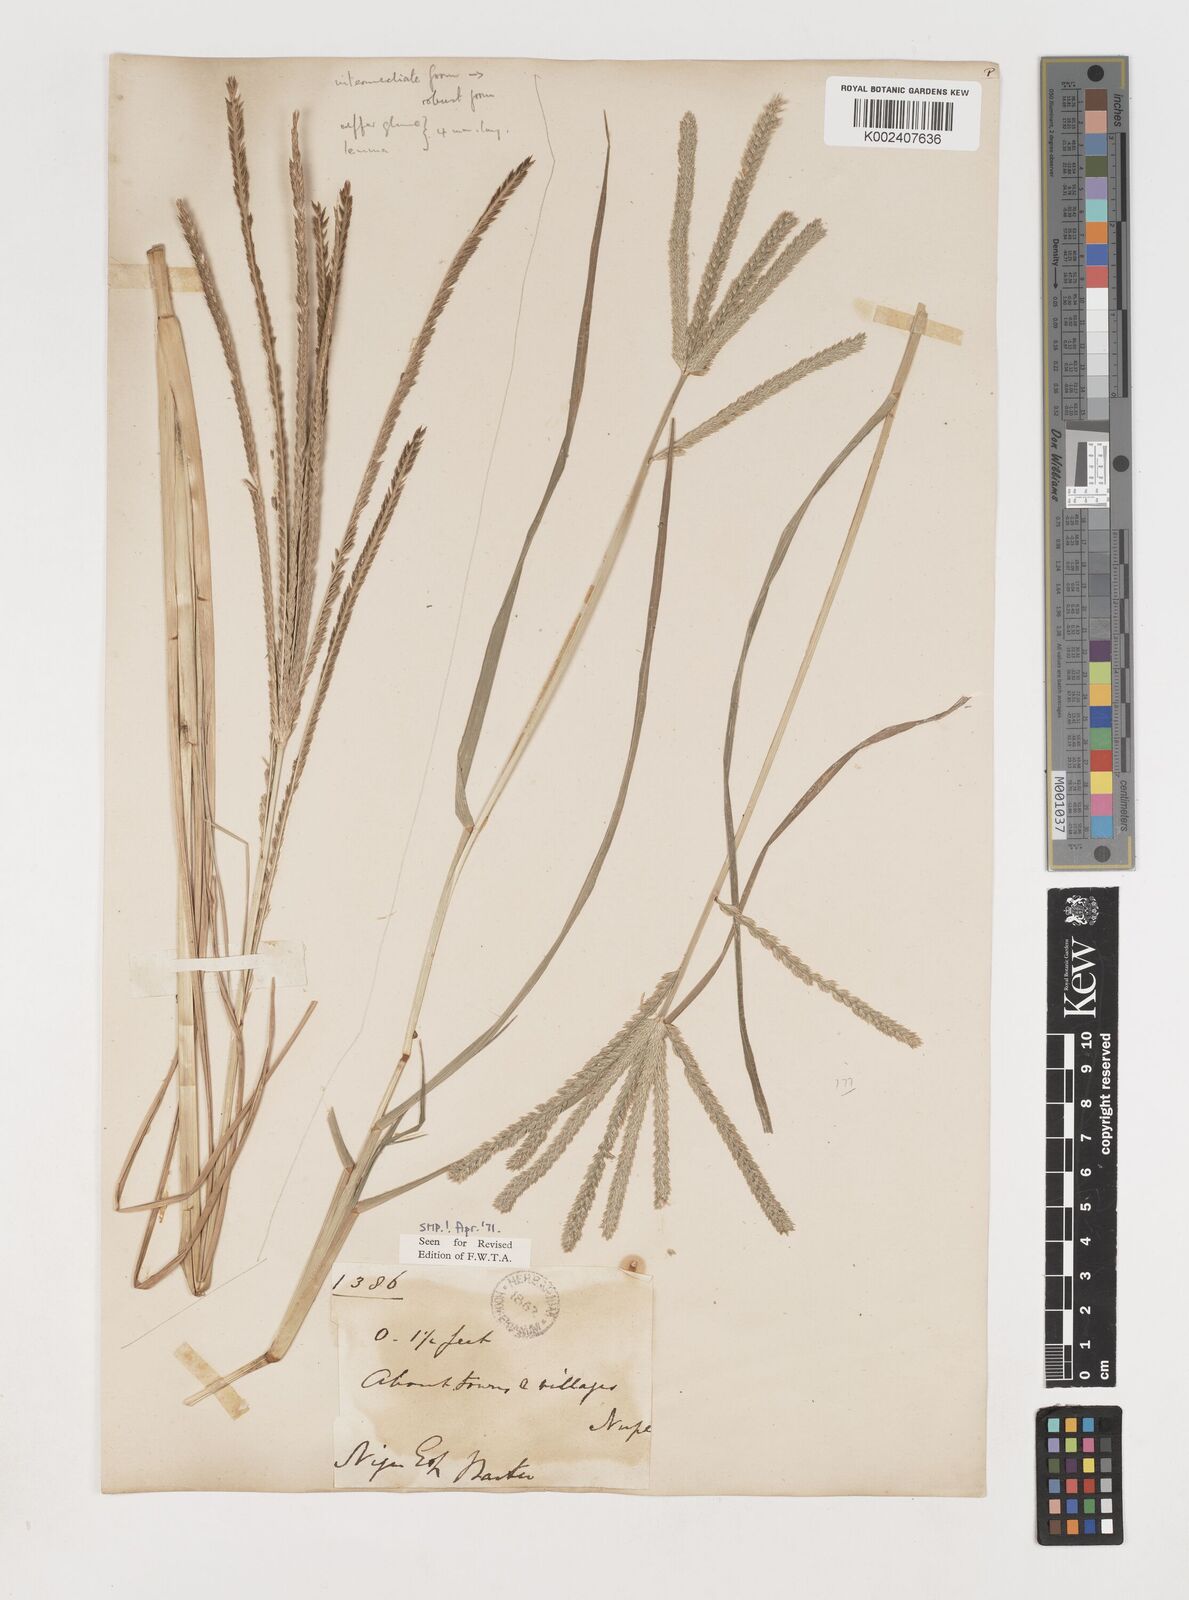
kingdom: Plantae
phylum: Tracheophyta
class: Liliopsida
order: Poales
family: Poaceae
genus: Eleusine
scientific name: Eleusine indica
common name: Yard-grass
